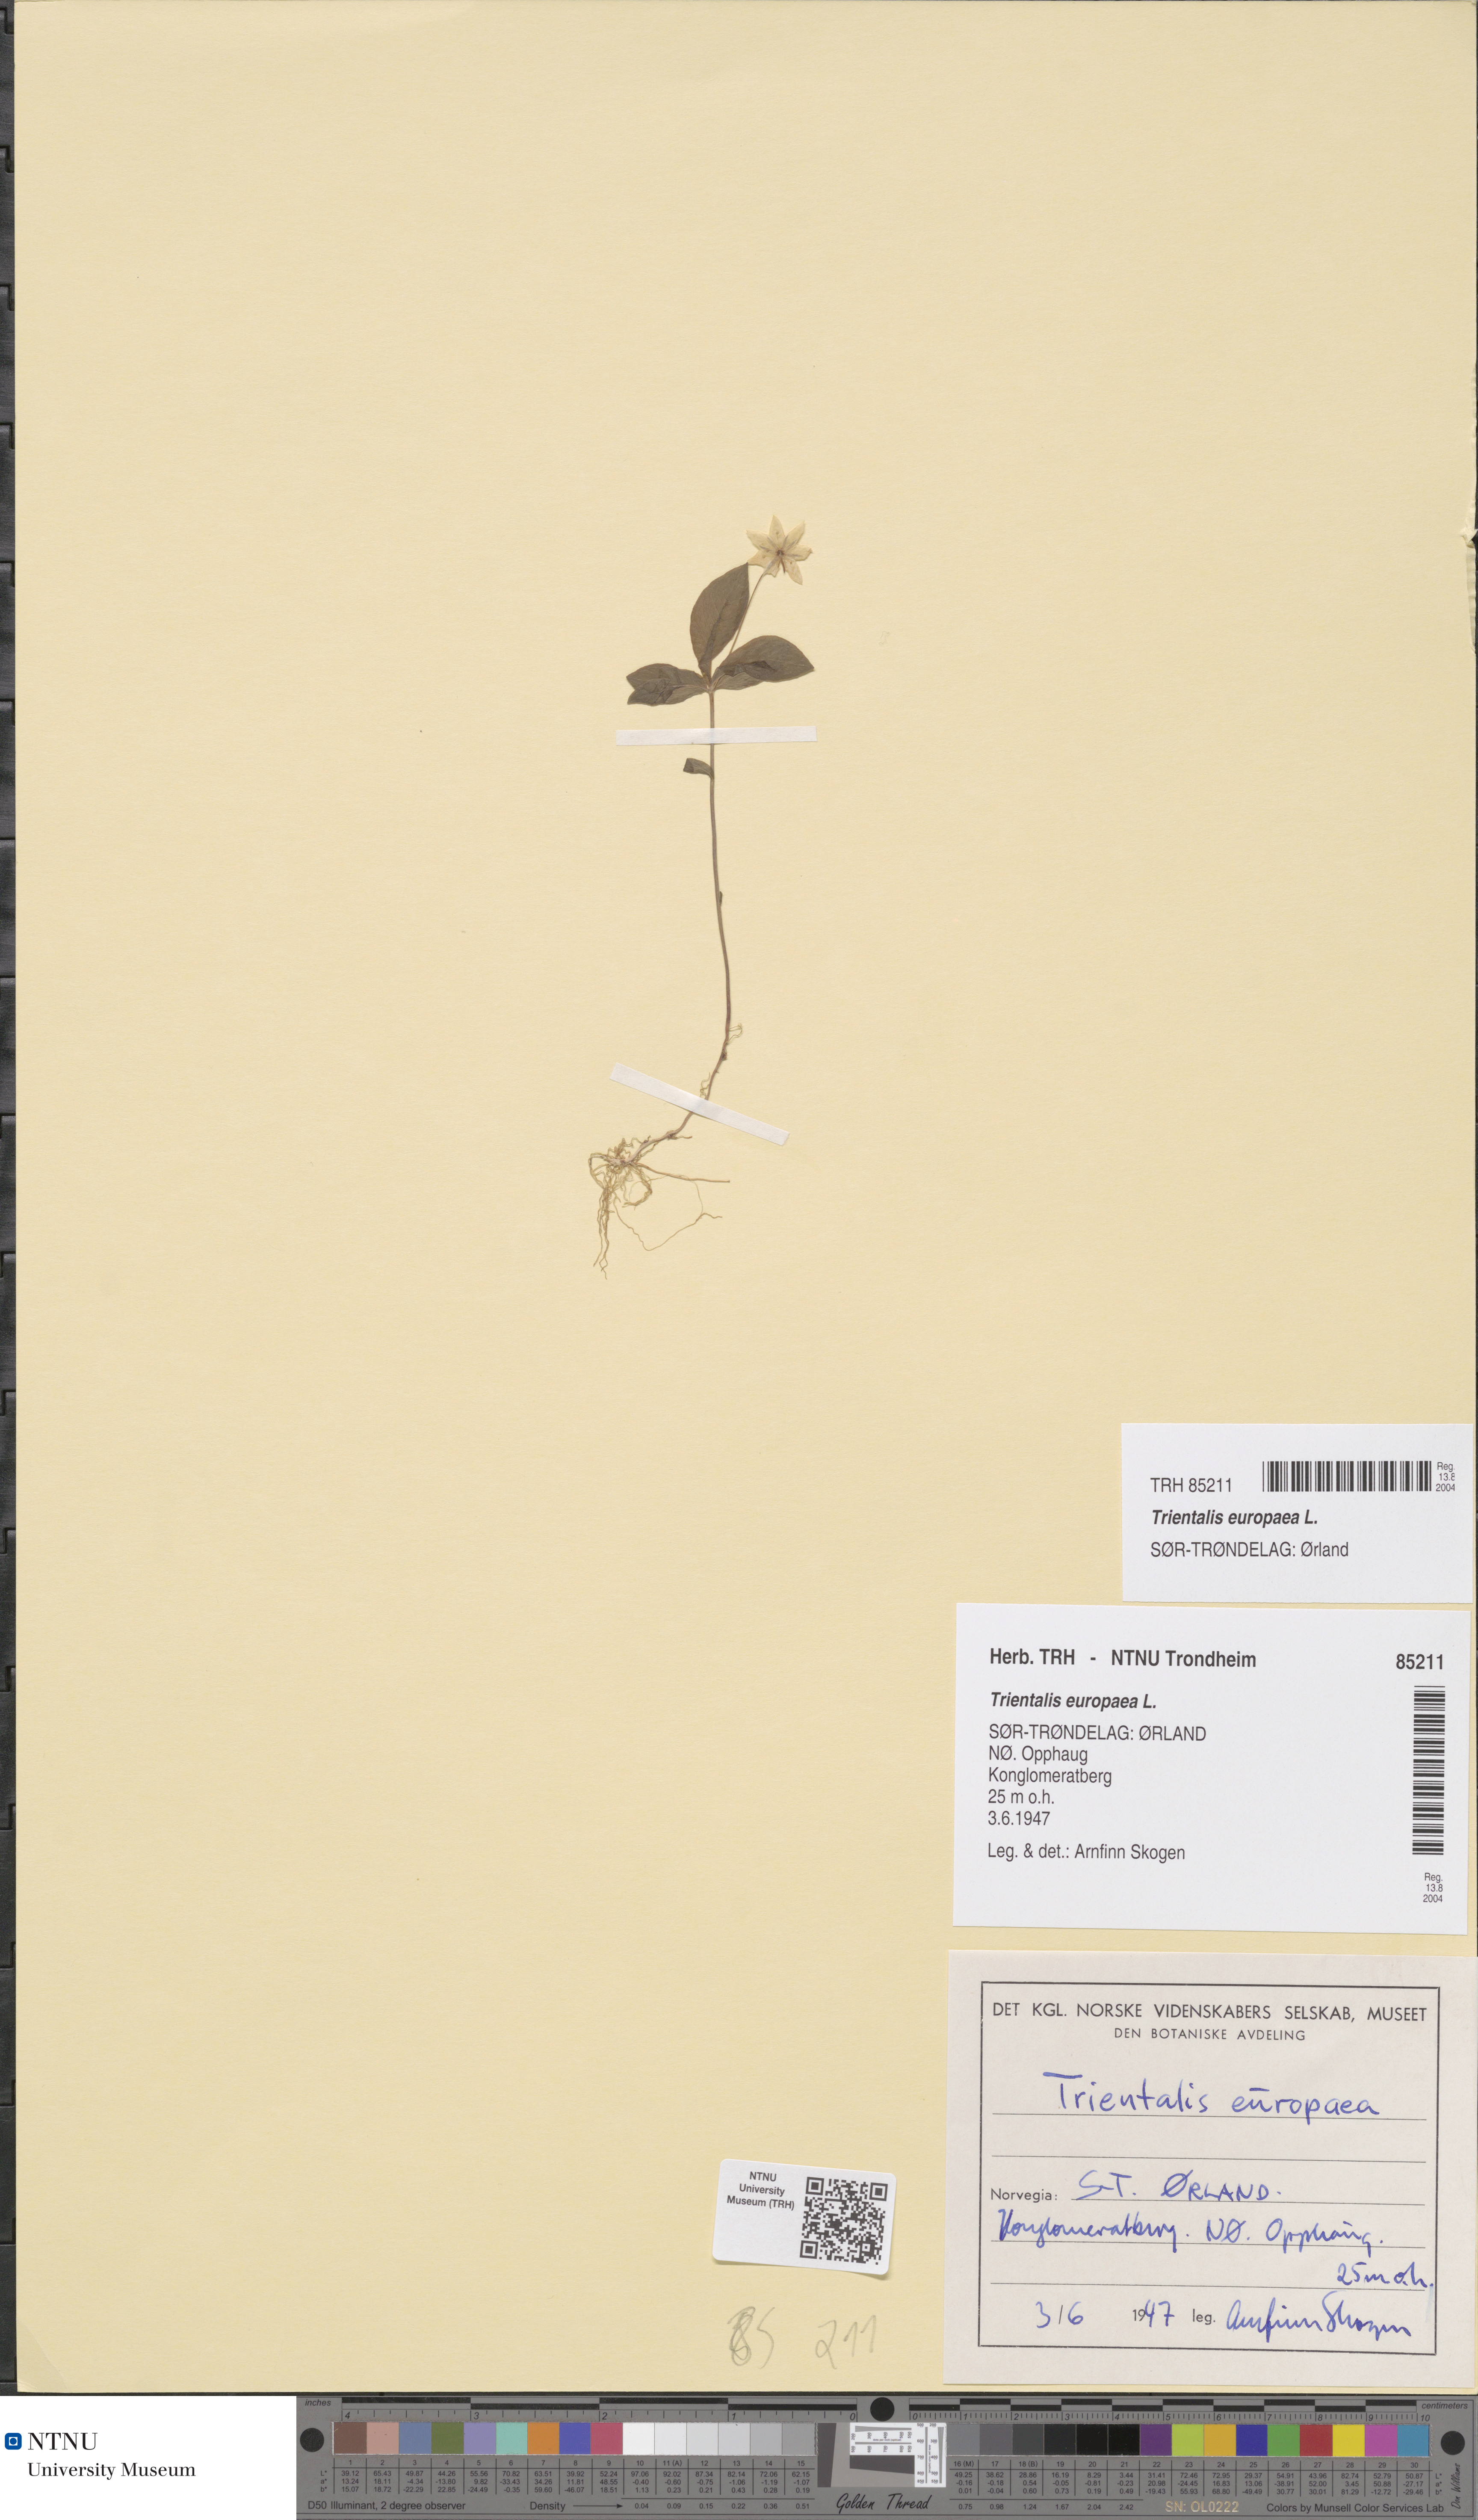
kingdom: Plantae
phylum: Tracheophyta
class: Magnoliopsida
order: Ericales
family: Primulaceae
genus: Lysimachia
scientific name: Lysimachia europaea
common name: Arctic starflower
